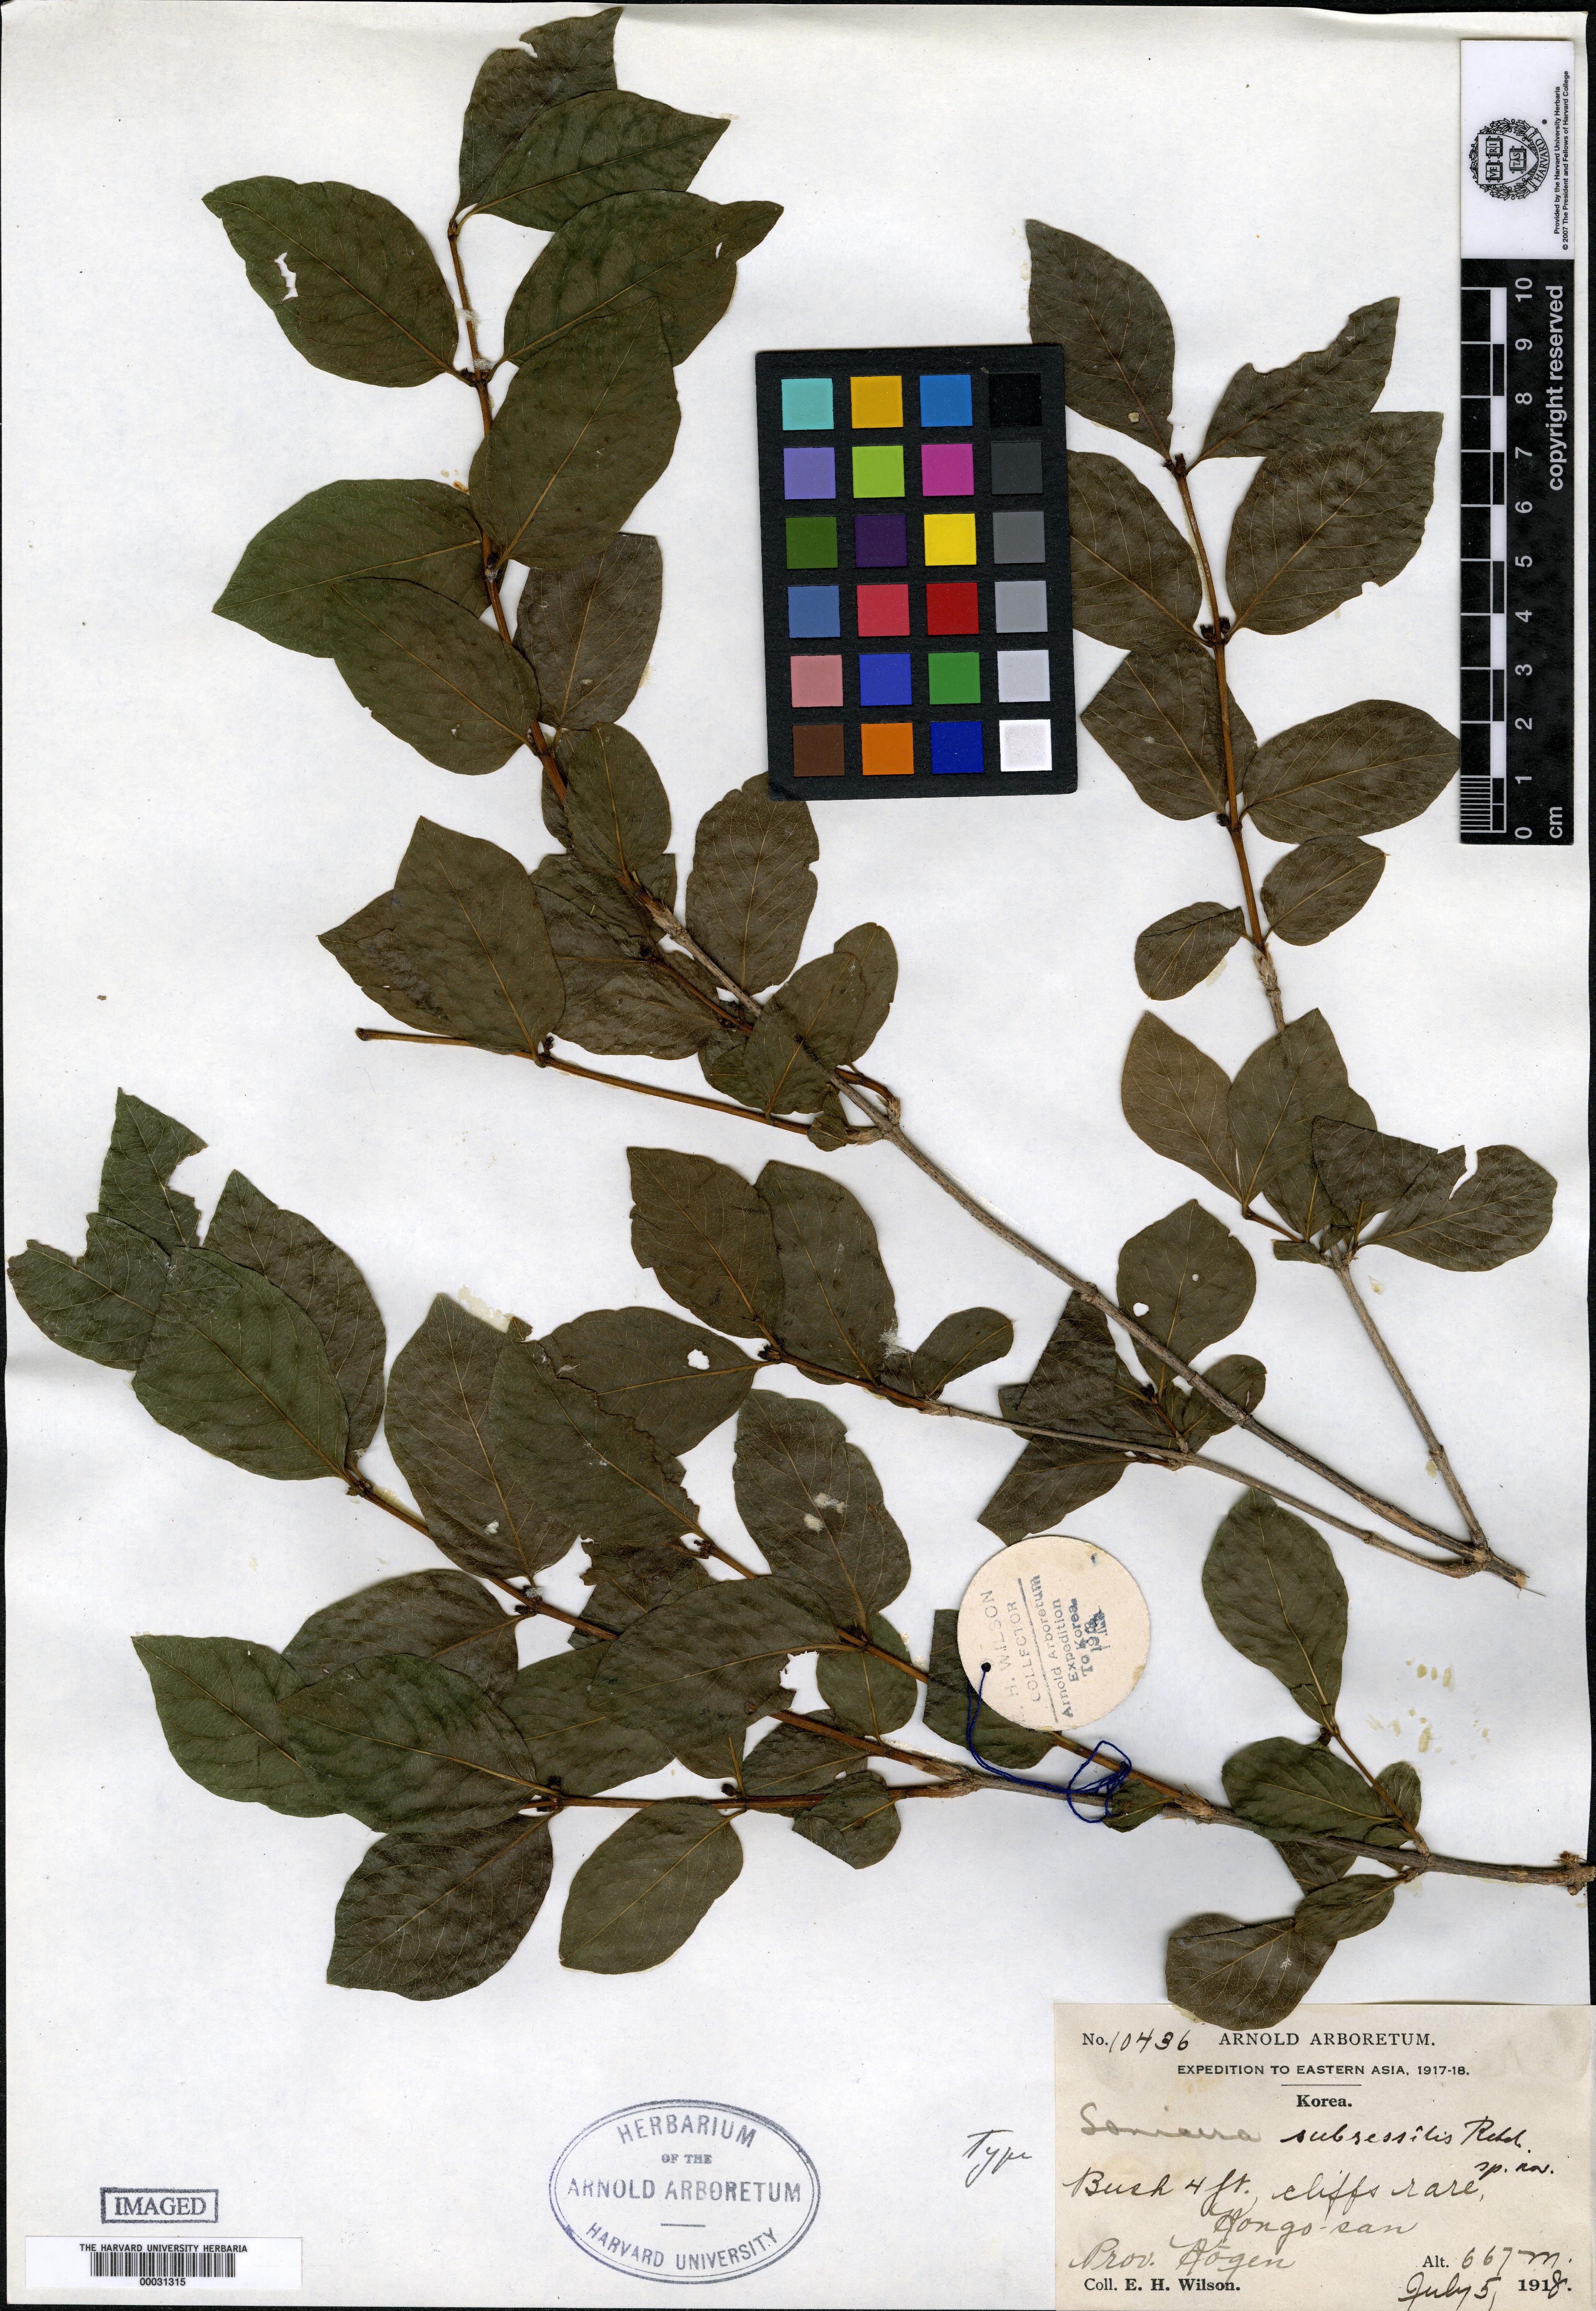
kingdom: Plantae
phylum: Tracheophyta
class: Magnoliopsida
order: Dipsacales
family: Caprifoliaceae
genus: Lonicera
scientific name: Lonicera subsessilis
